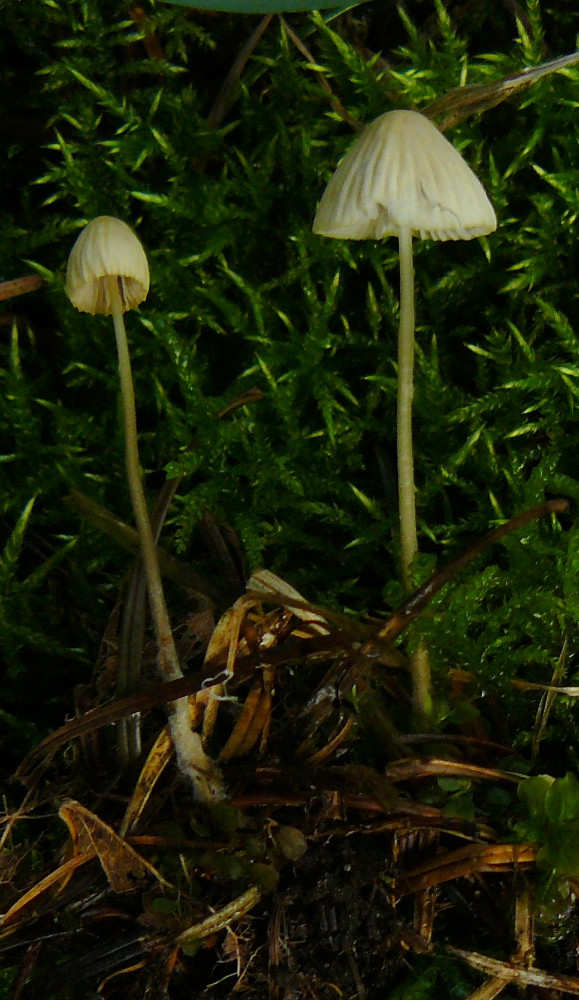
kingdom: Fungi
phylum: Basidiomycota
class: Agaricomycetes
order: Agaricales
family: Mycenaceae
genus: Mycena
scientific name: Mycena epipterygia
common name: gulstokket huesvamp
